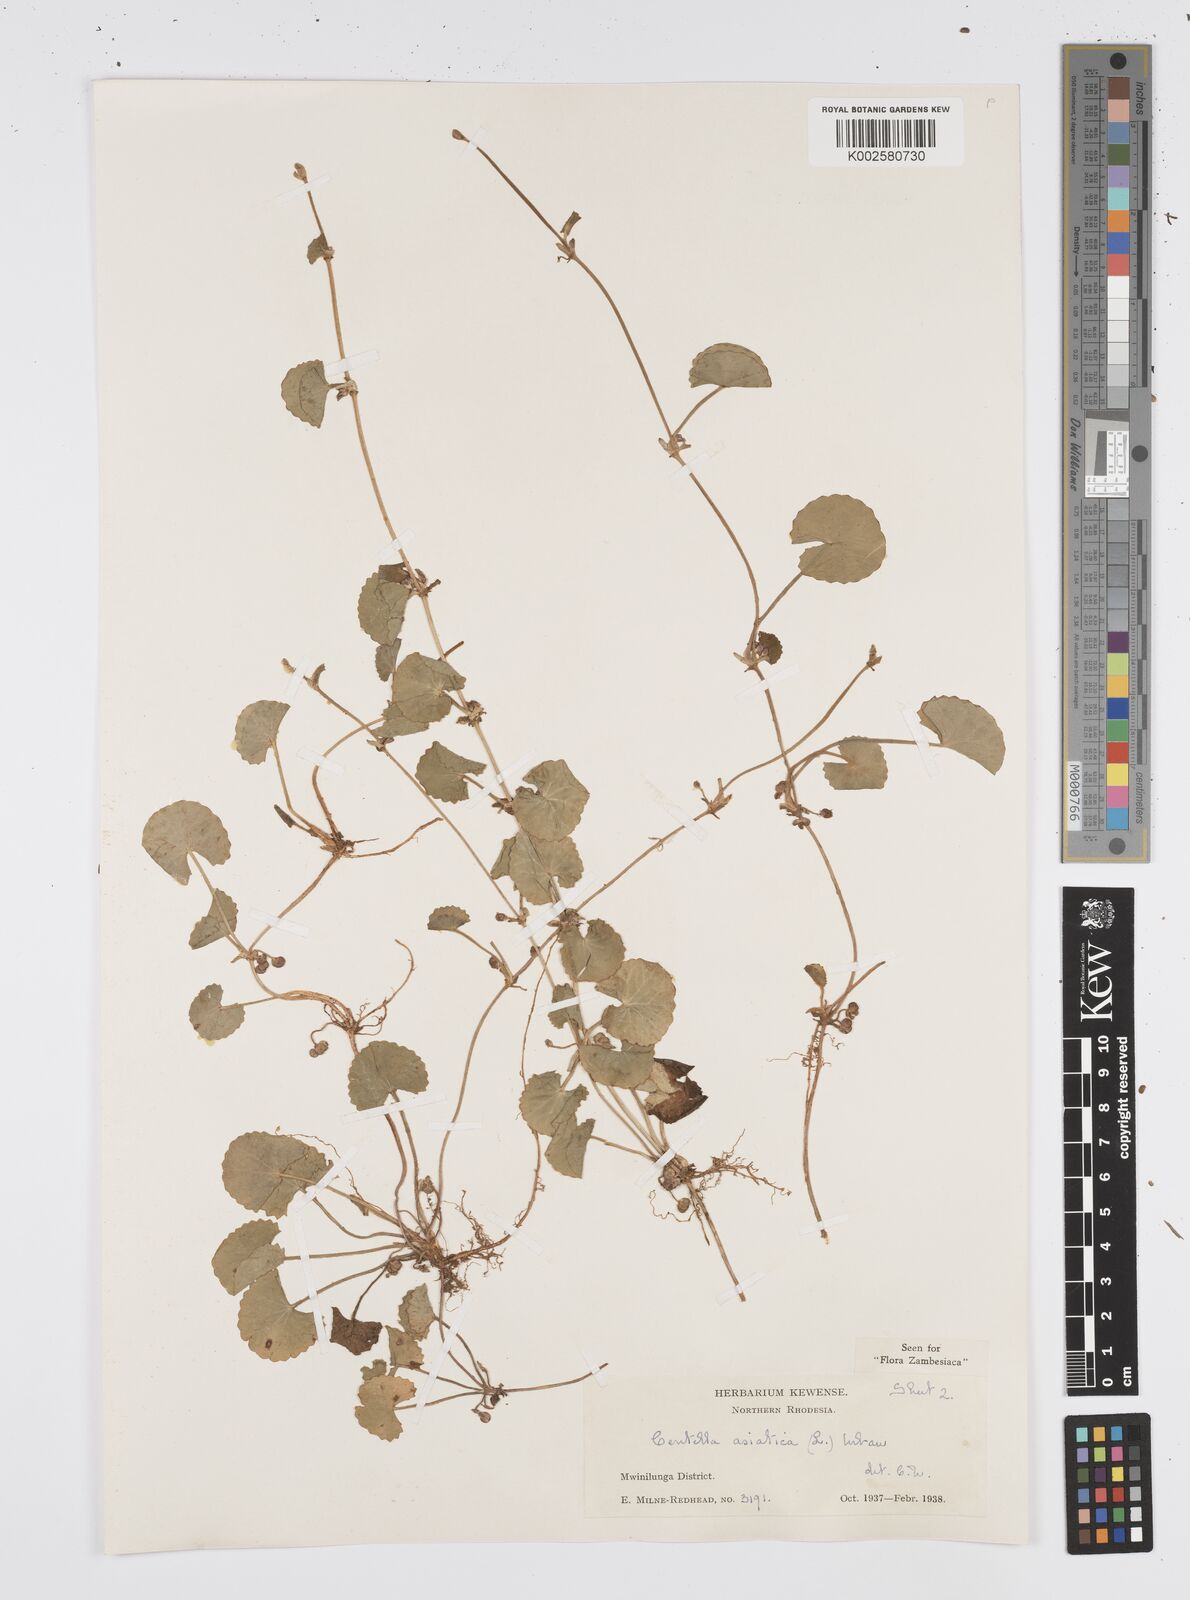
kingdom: Plantae
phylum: Tracheophyta
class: Magnoliopsida
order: Apiales
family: Apiaceae
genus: Centella
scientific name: Centella asiatica
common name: Spadeleaf
